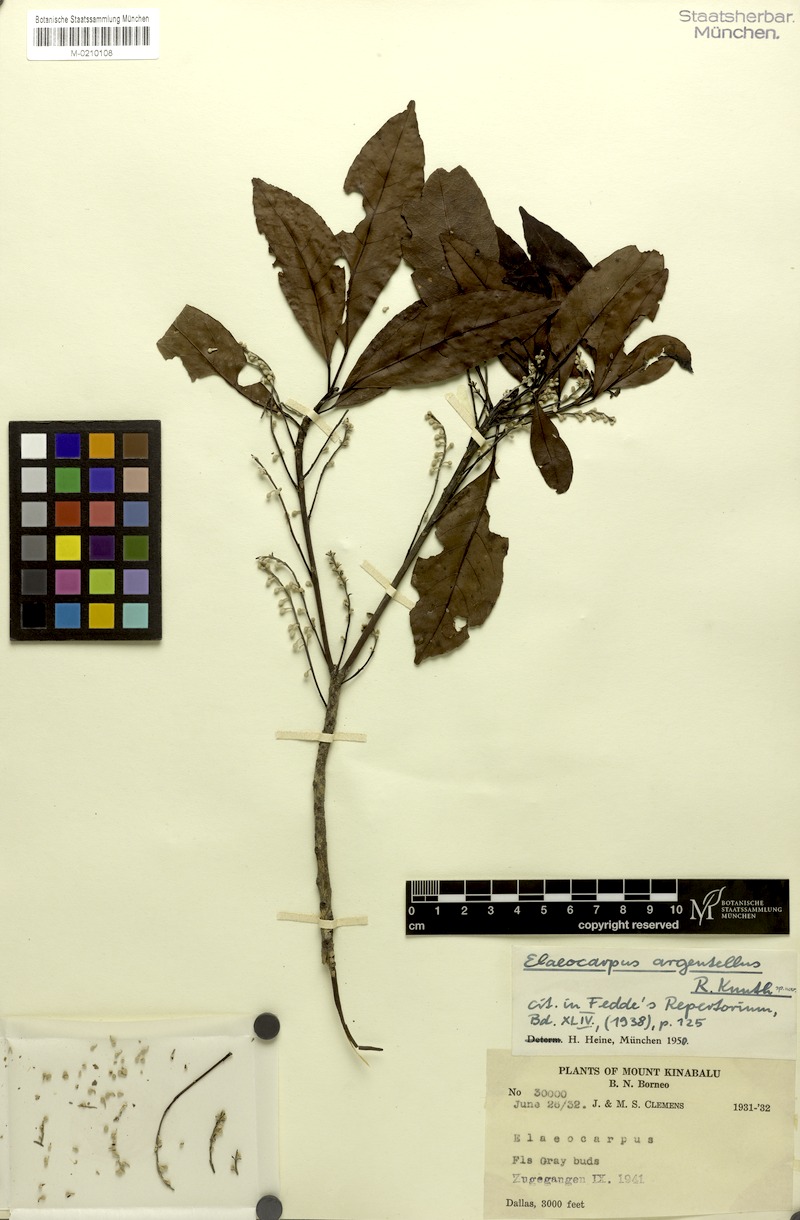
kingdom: Plantae
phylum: Tracheophyta
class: Magnoliopsida
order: Oxalidales
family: Elaeocarpaceae
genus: Elaeocarpus
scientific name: Elaeocarpus pedunculatus
